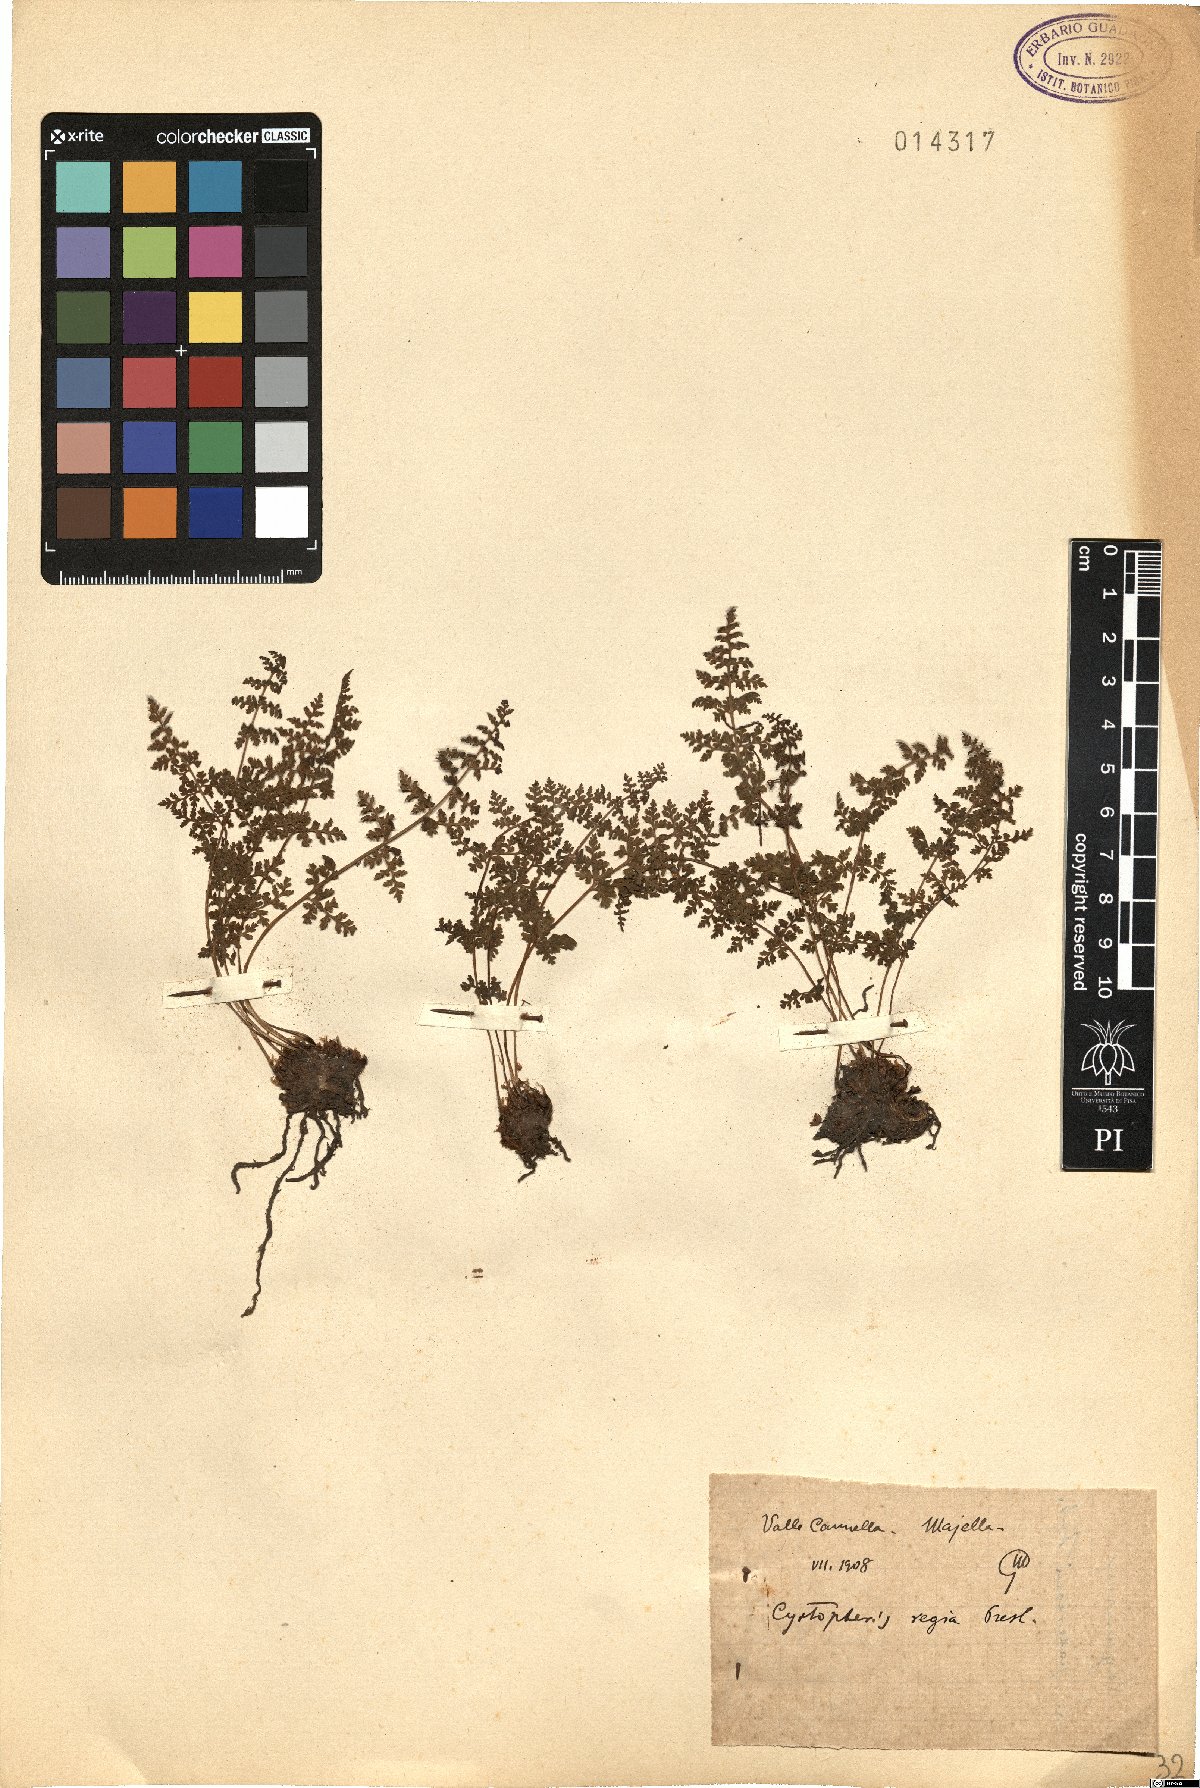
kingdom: Plantae
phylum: Tracheophyta
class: Polypodiopsida
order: Polypodiales
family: Cystopteridaceae
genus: Cystopteris
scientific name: Cystopteris alpina
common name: Alpine bladder-fern
